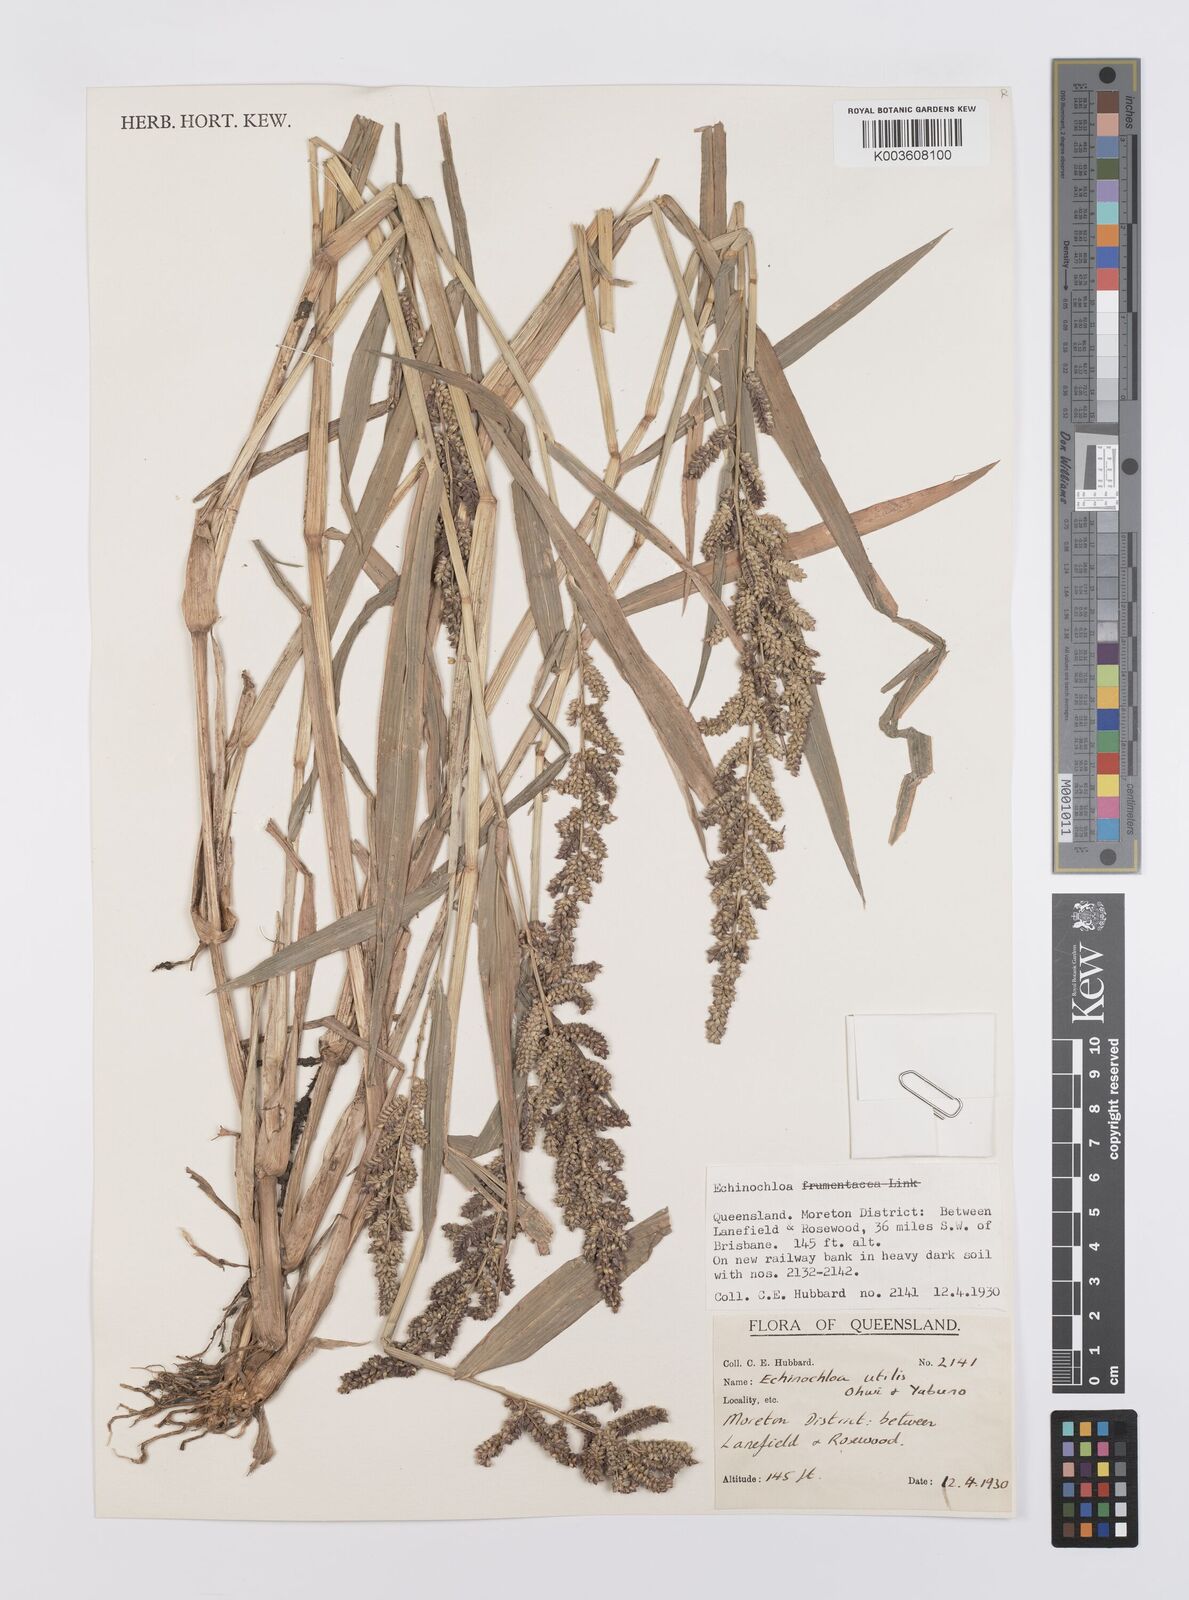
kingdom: Plantae
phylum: Tracheophyta
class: Liliopsida
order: Poales
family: Poaceae
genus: Echinochloa
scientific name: Echinochloa crus-galli
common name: Cockspur
